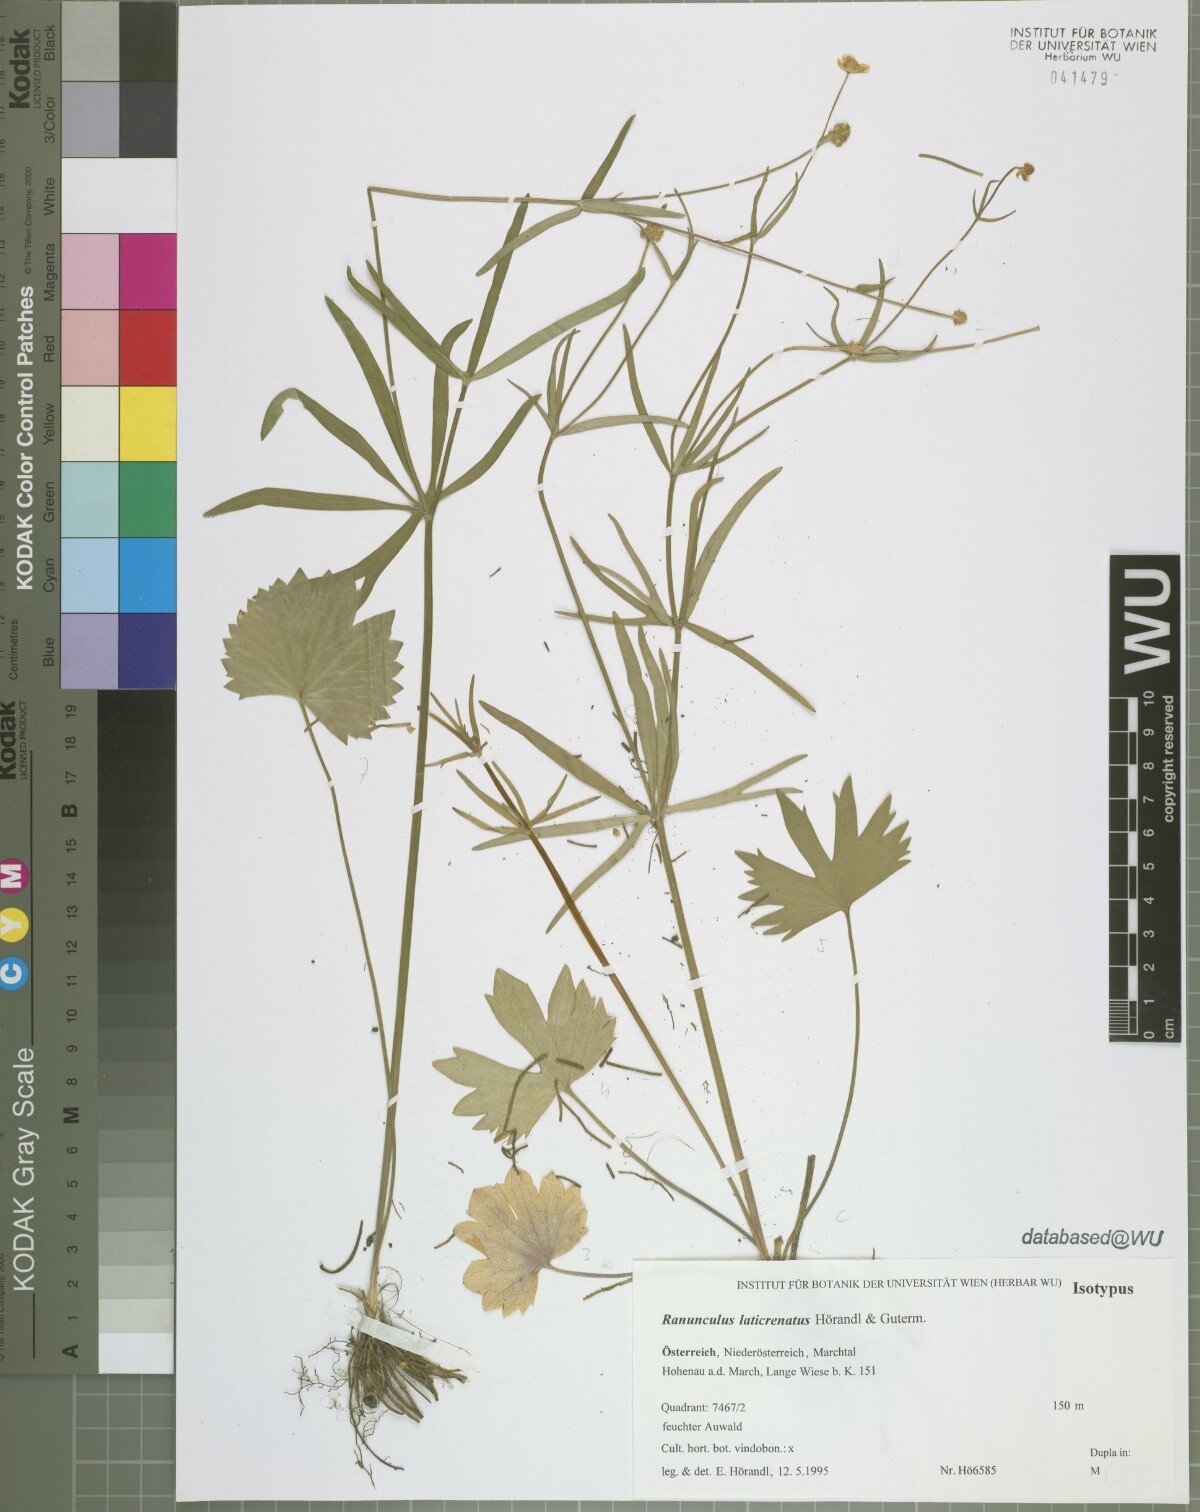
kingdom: Plantae
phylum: Tracheophyta
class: Magnoliopsida
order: Ranunculales
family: Ranunculaceae
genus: Ranunculus
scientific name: Ranunculus laticrenatus
